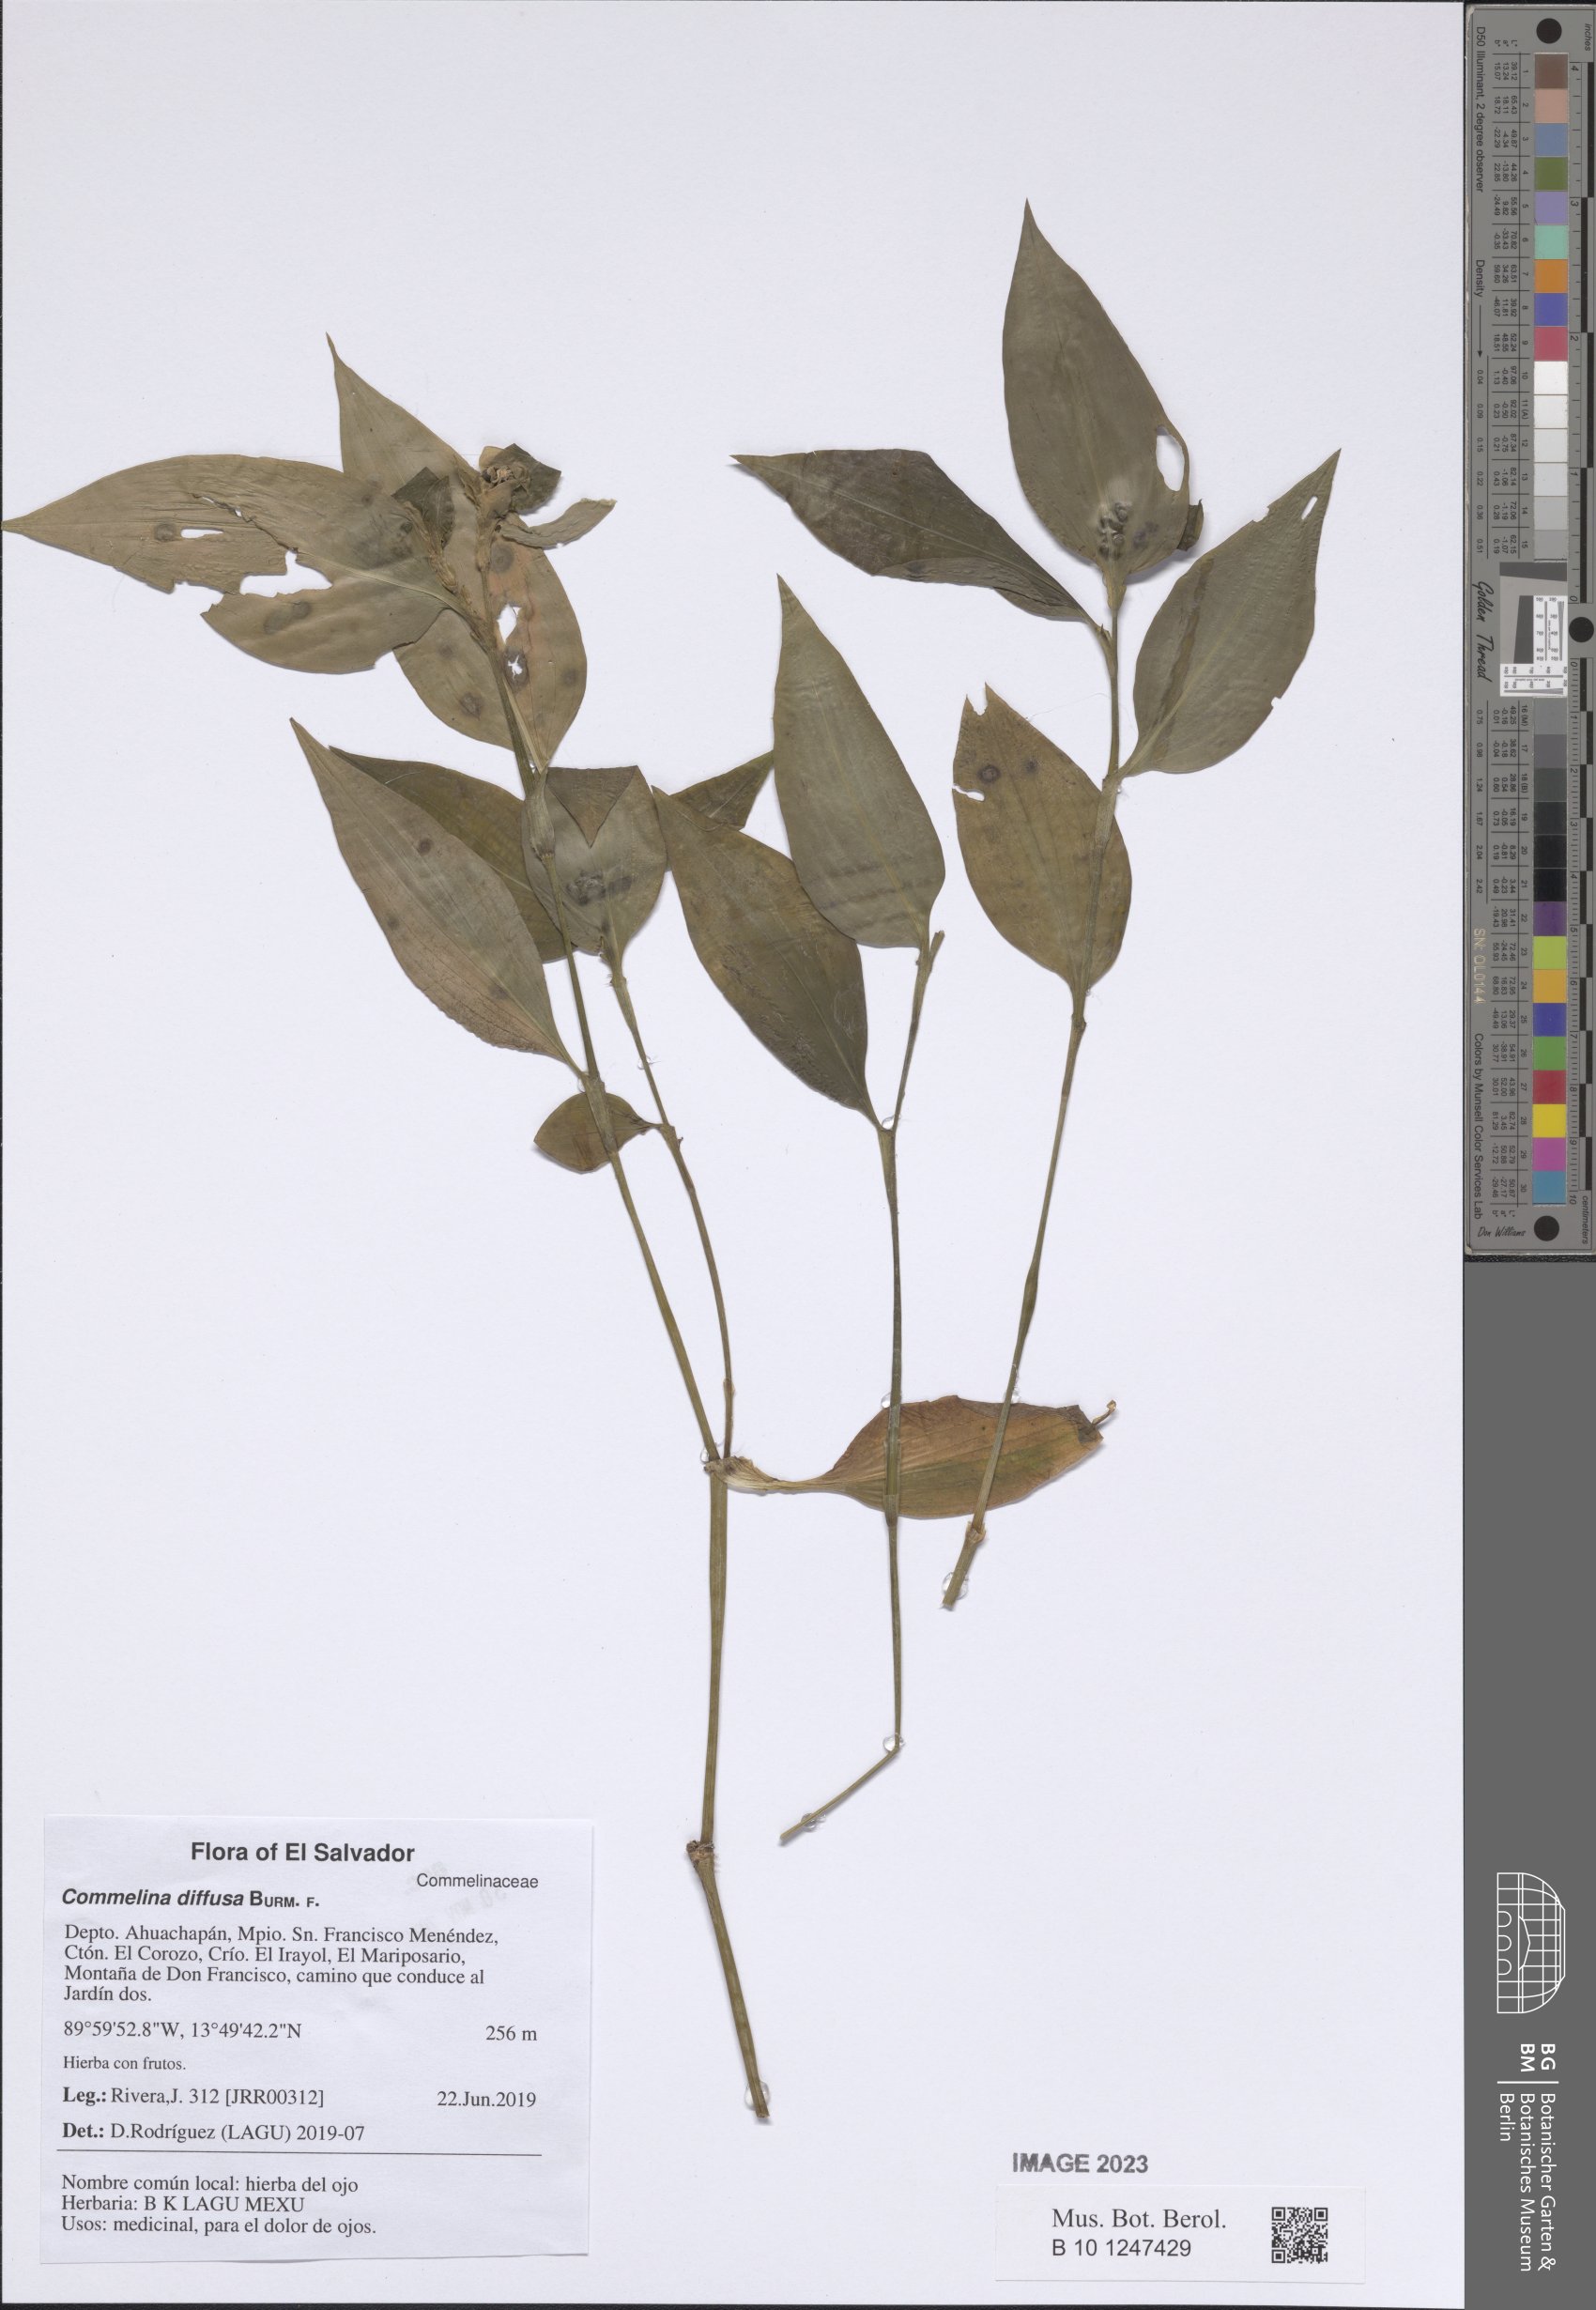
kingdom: Plantae
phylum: Tracheophyta
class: Liliopsida
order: Commelinales
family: Commelinaceae
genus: Commelina
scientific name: Commelina diffusa
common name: Climbing dayflower
